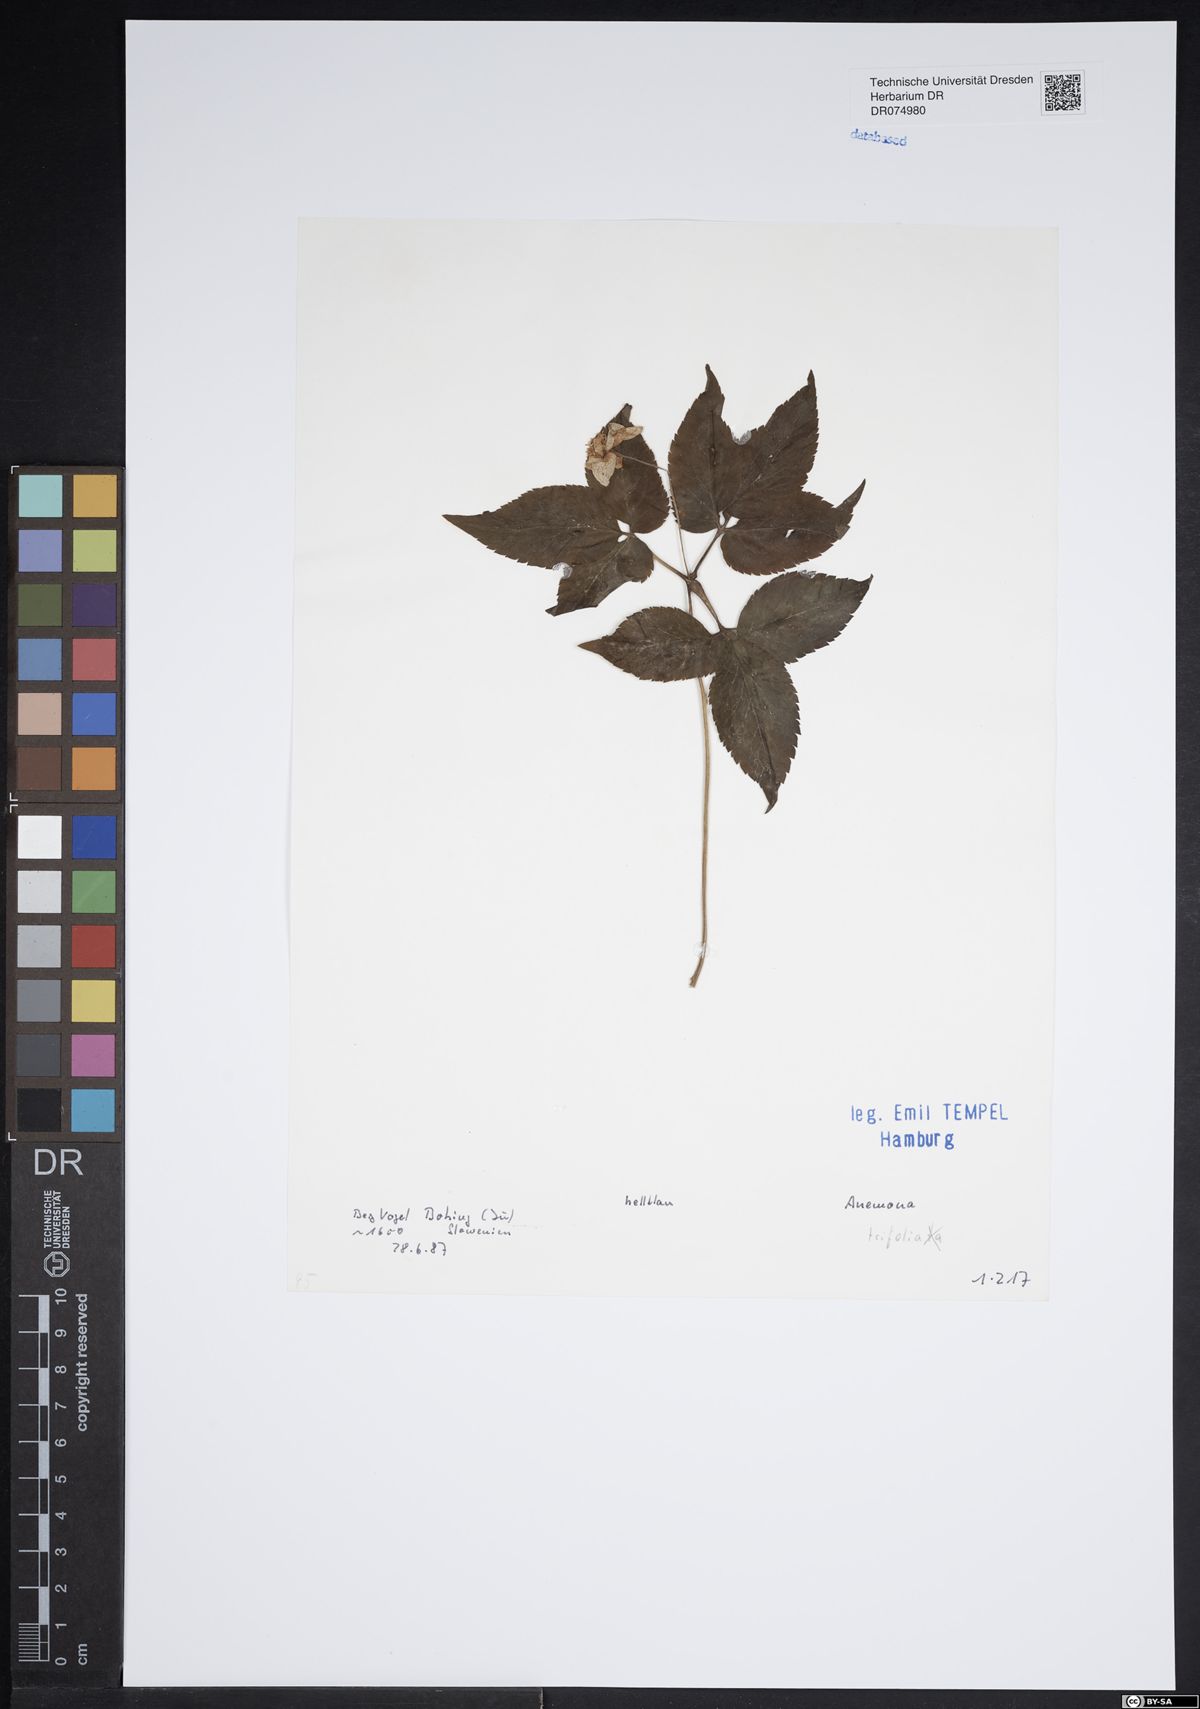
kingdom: Plantae
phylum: Tracheophyta
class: Magnoliopsida
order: Ranunculales
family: Ranunculaceae
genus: Anemone
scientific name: Anemone trifolia
